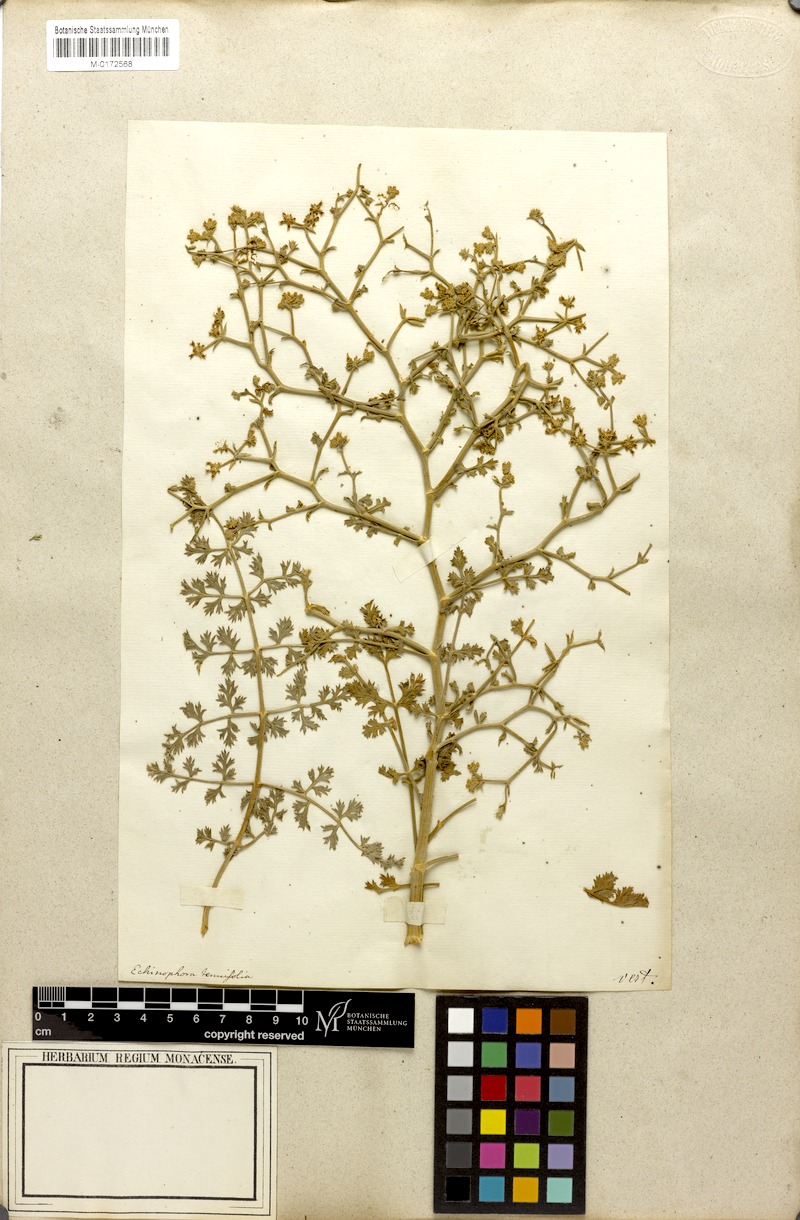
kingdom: Plantae
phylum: Tracheophyta
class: Magnoliopsida
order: Apiales
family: Apiaceae
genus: Echinophora
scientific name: Echinophora tenuifolia
